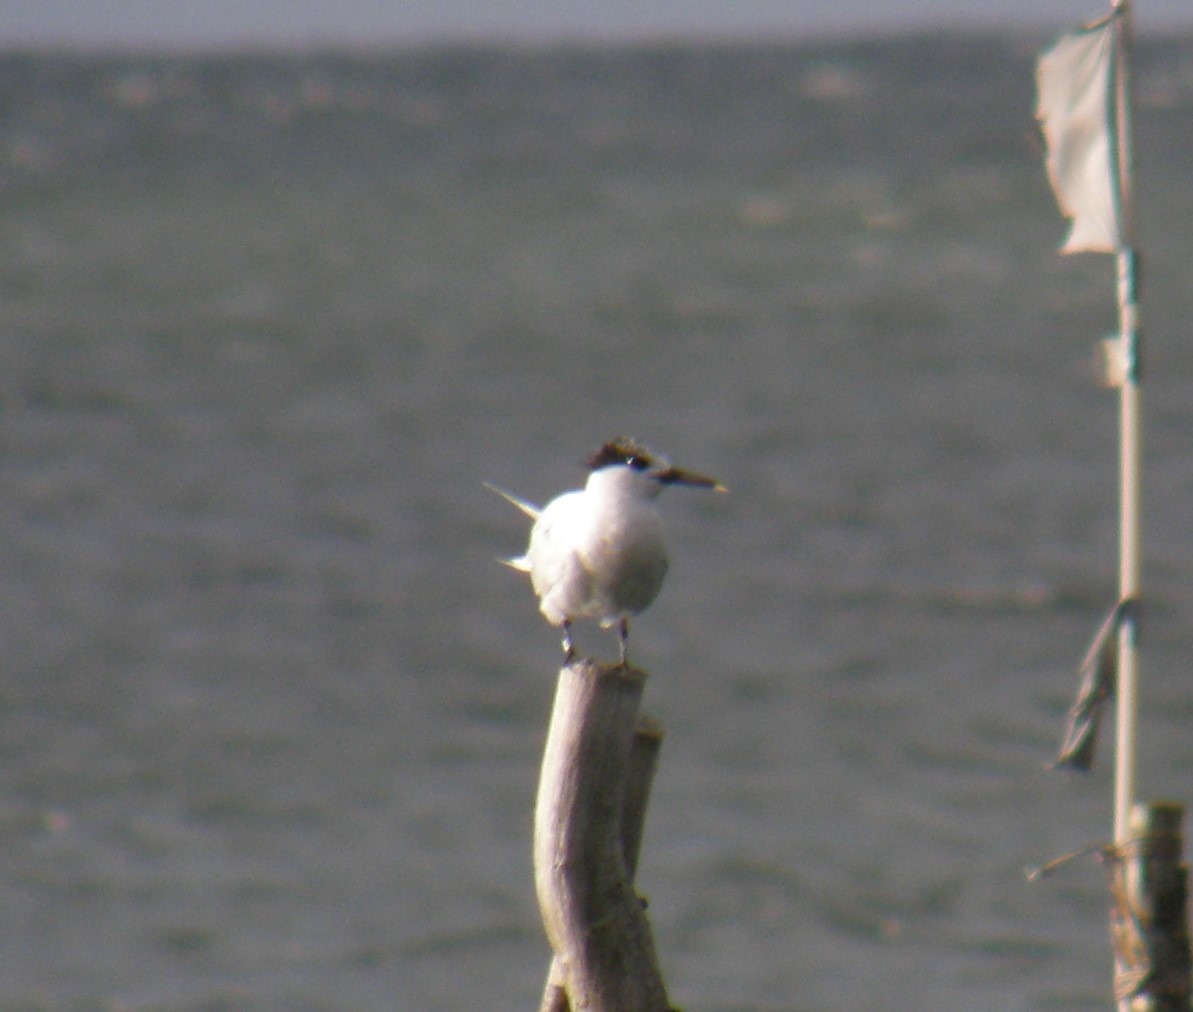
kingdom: Animalia
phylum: Chordata
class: Aves
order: Charadriiformes
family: Laridae
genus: Thalasseus
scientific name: Thalasseus sandvicensis
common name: Splitterne
